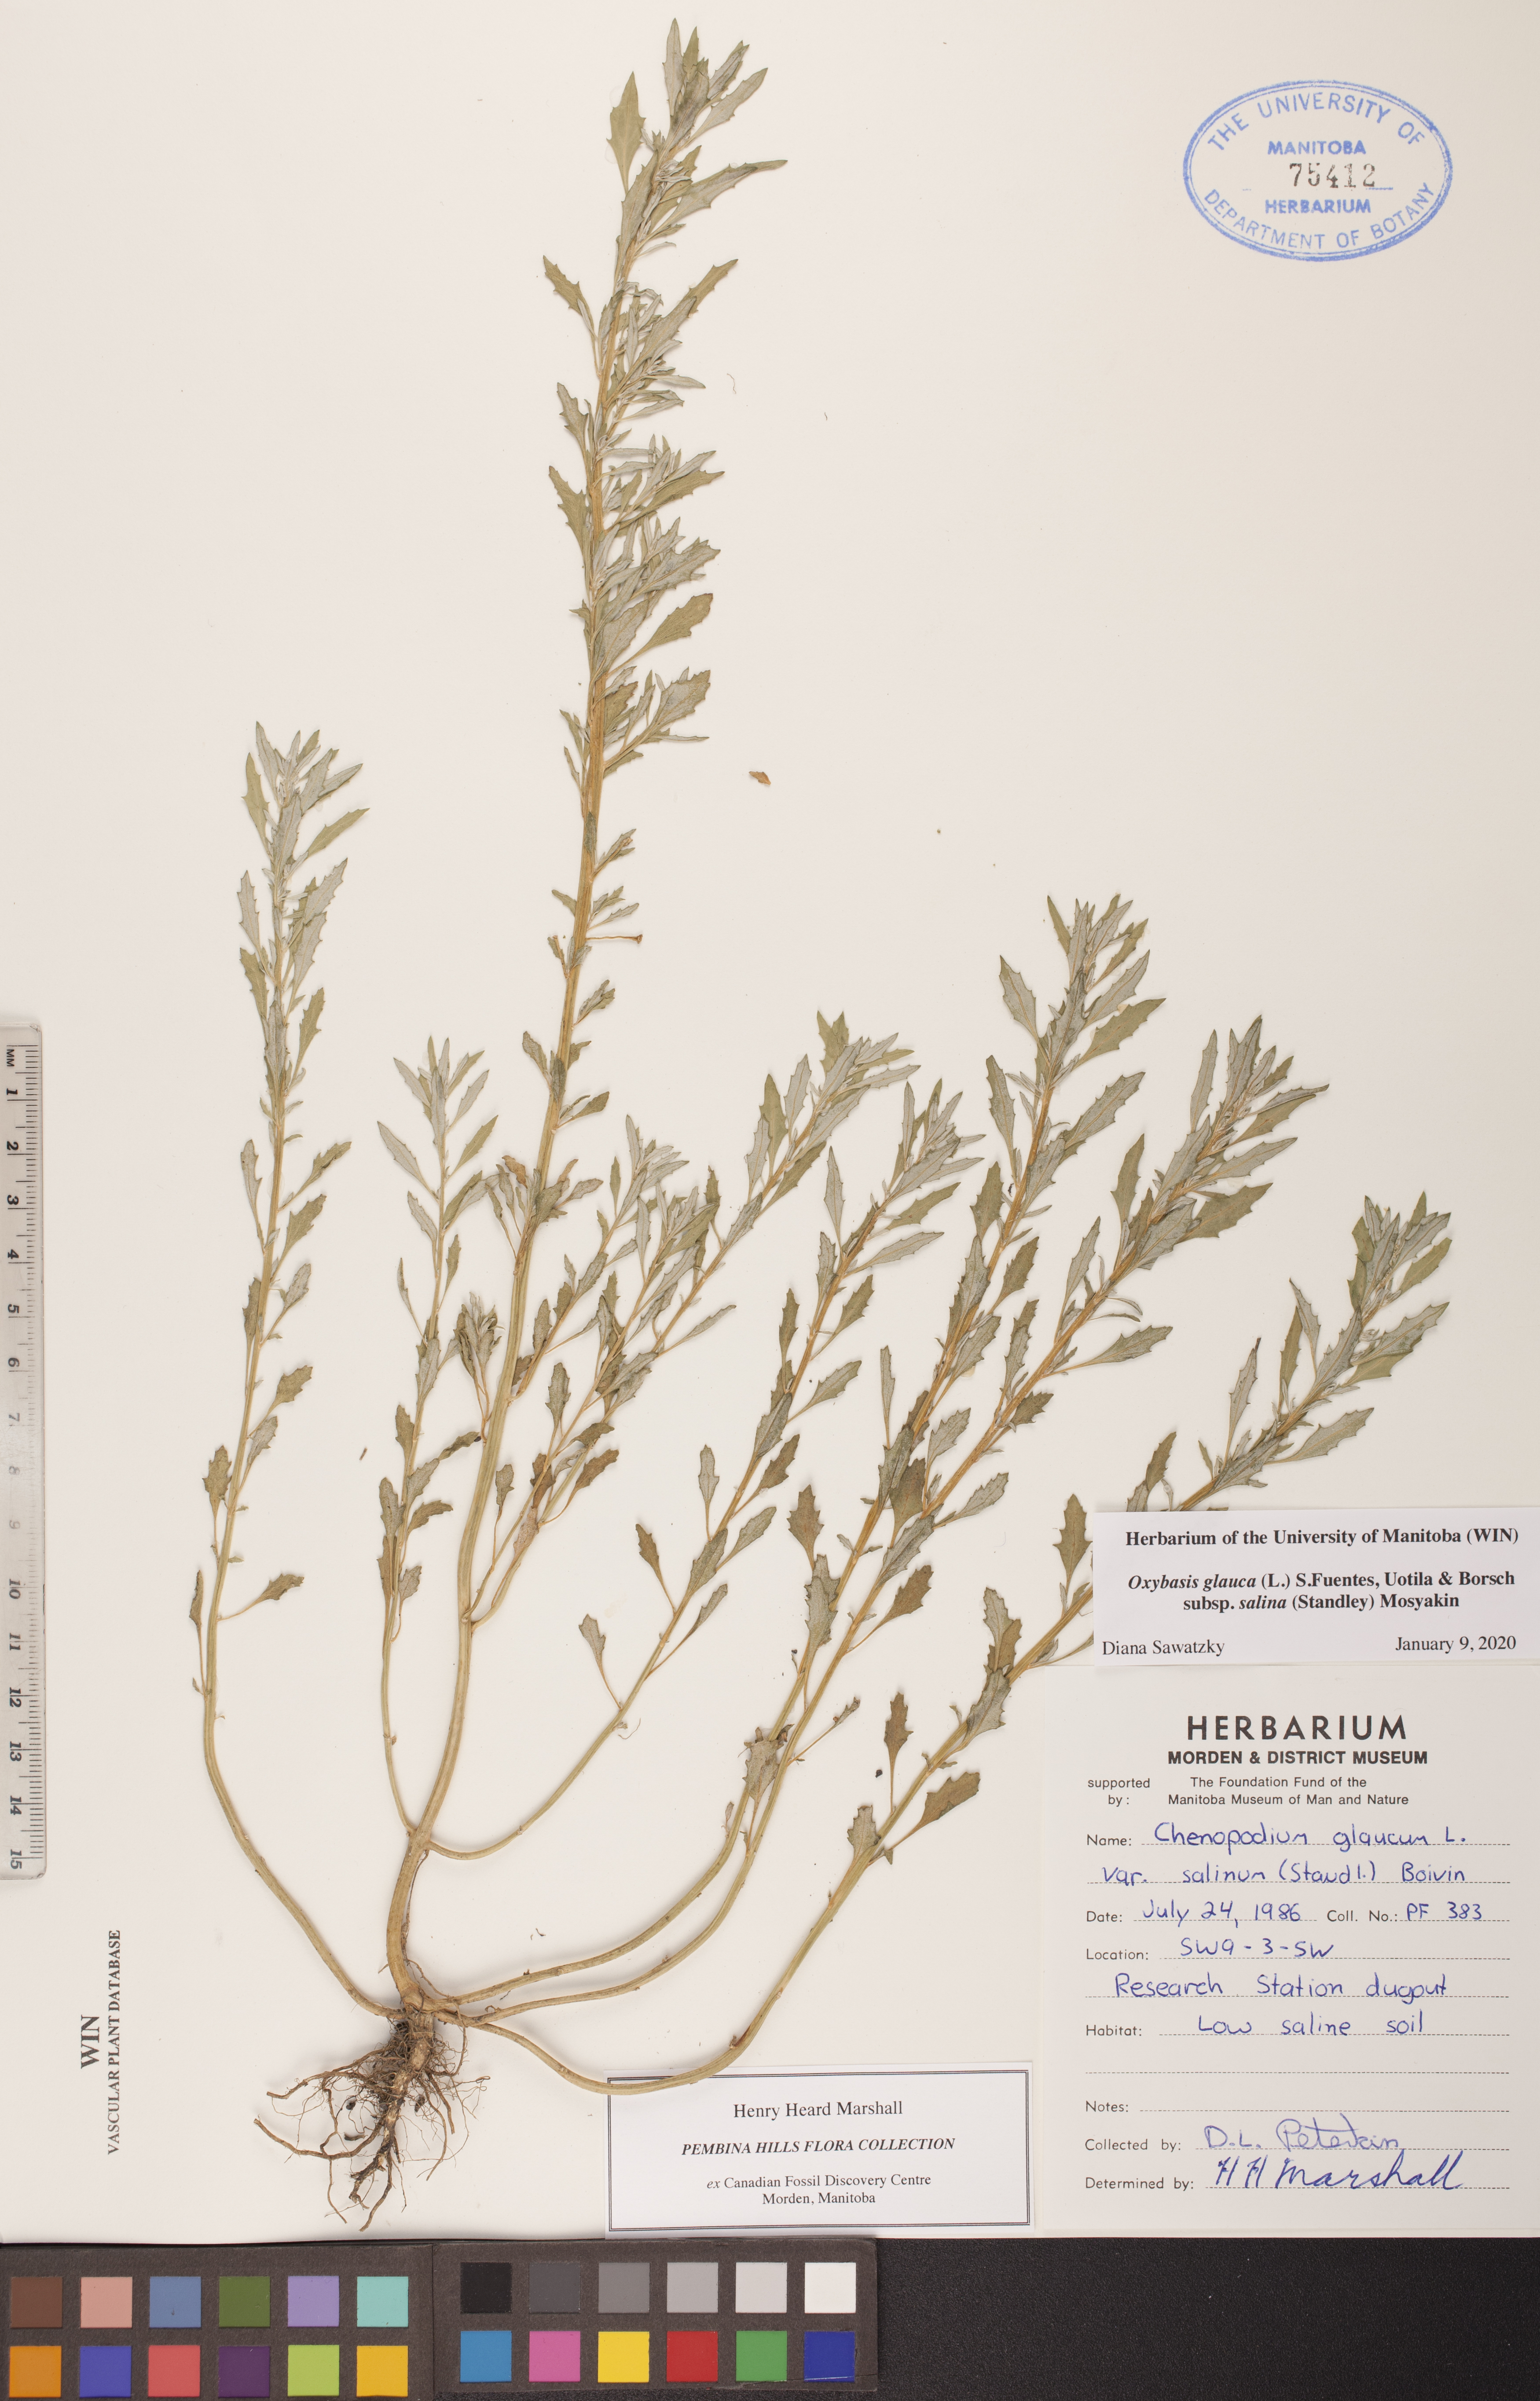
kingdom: Plantae
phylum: Tracheophyta
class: Magnoliopsida
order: Caryophyllales
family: Amaranthaceae
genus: Oxybasis
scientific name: Oxybasis salina
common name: Rocky mountain goosefoot
